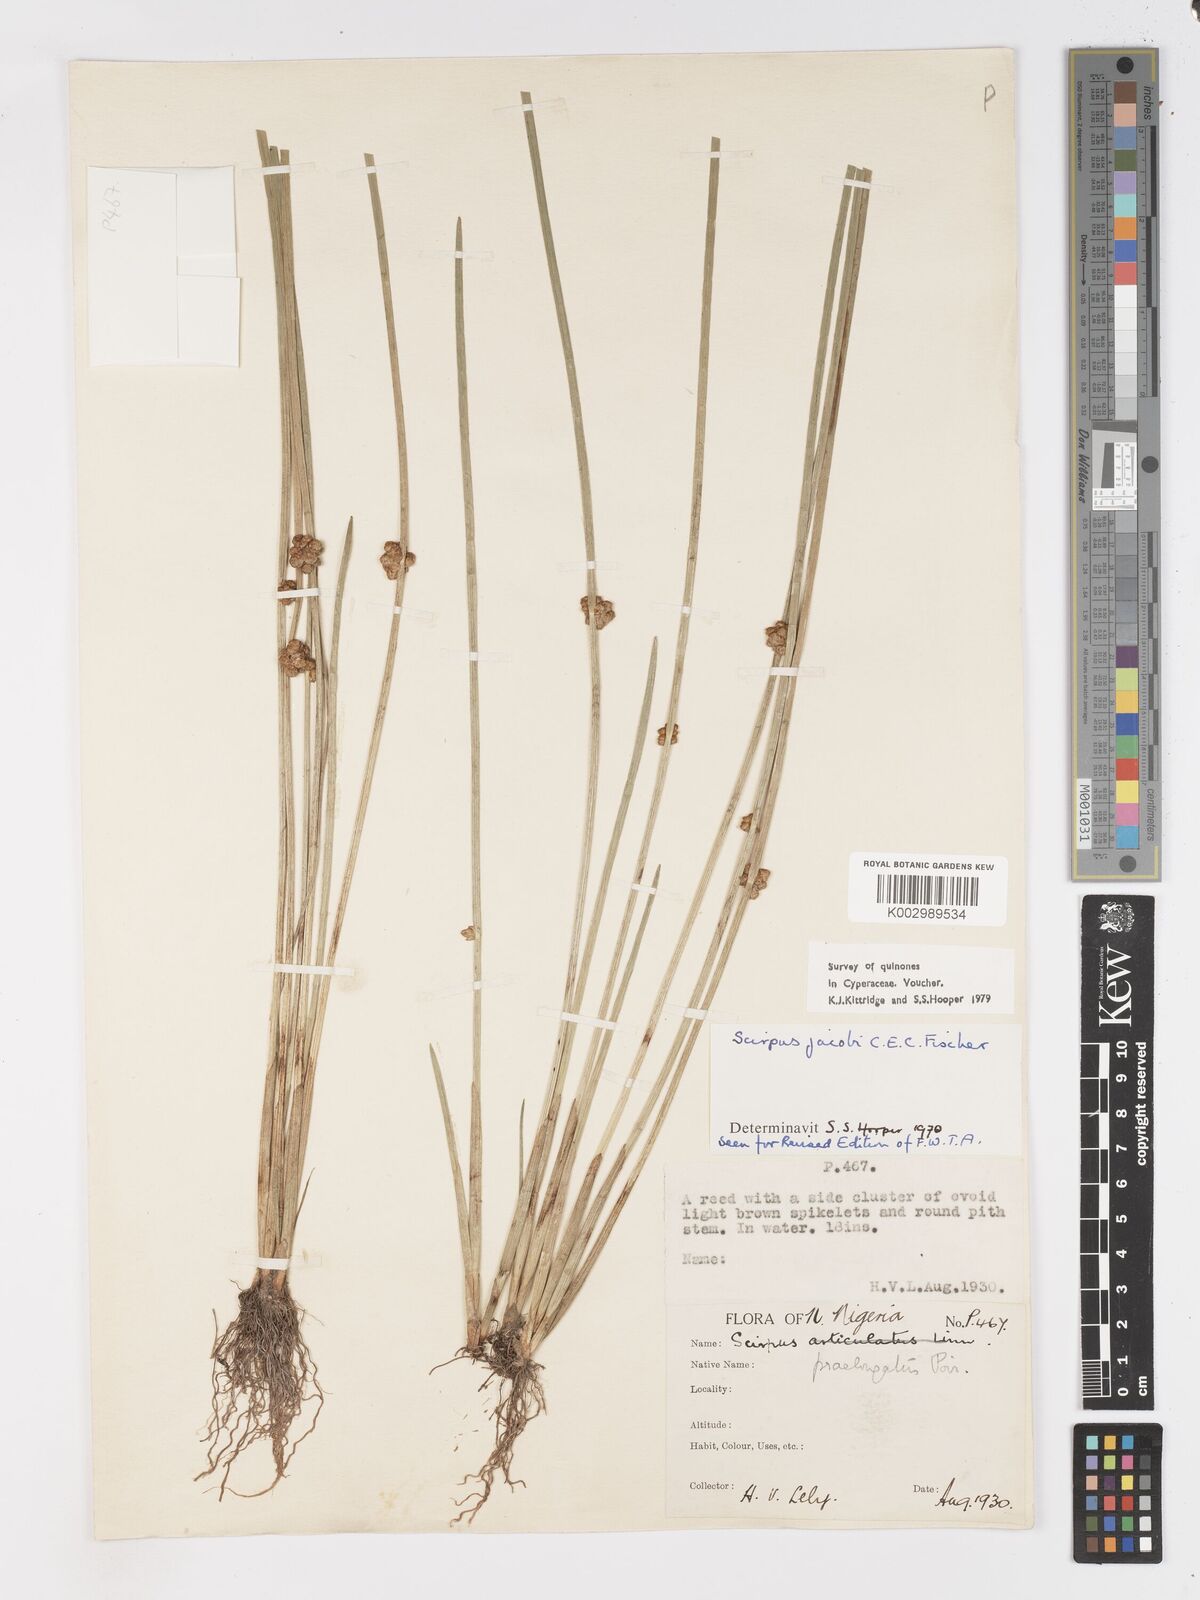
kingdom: Plantae
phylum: Tracheophyta
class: Liliopsida
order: Poales
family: Cyperaceae
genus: Schoenoplectiella
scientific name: Schoenoplectiella praelongata
